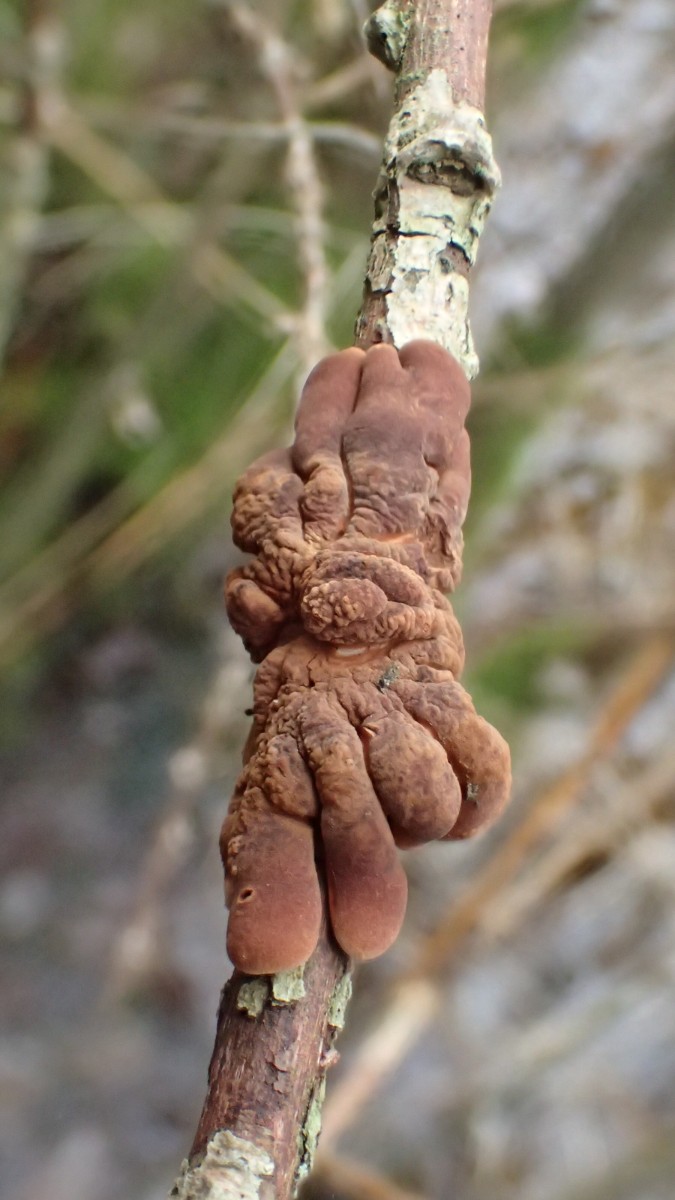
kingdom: Fungi
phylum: Ascomycota
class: Sordariomycetes
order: Hypocreales
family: Hypocreaceae
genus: Hypocreopsis
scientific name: Hypocreopsis lichenoides
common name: pilfinger
